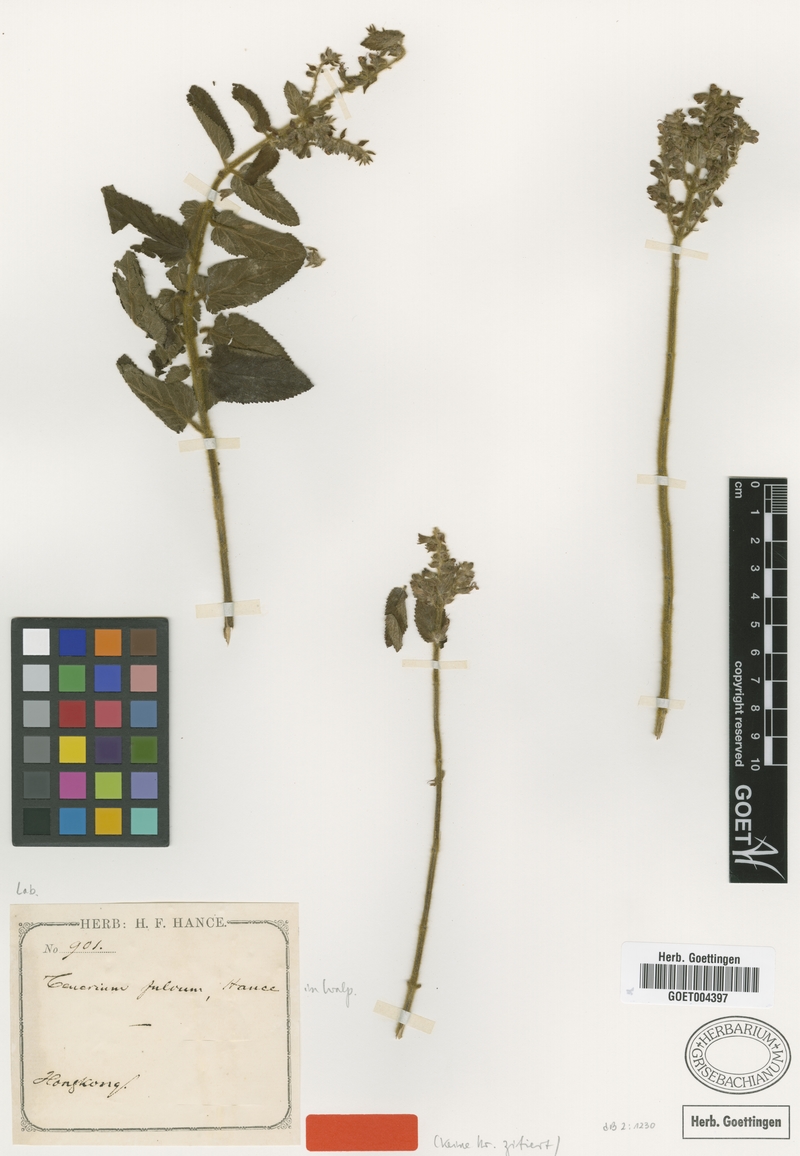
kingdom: Plantae
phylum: Tracheophyta
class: Magnoliopsida
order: Lamiales
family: Lamiaceae
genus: Teucrium
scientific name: Teucrium quadrifarium
